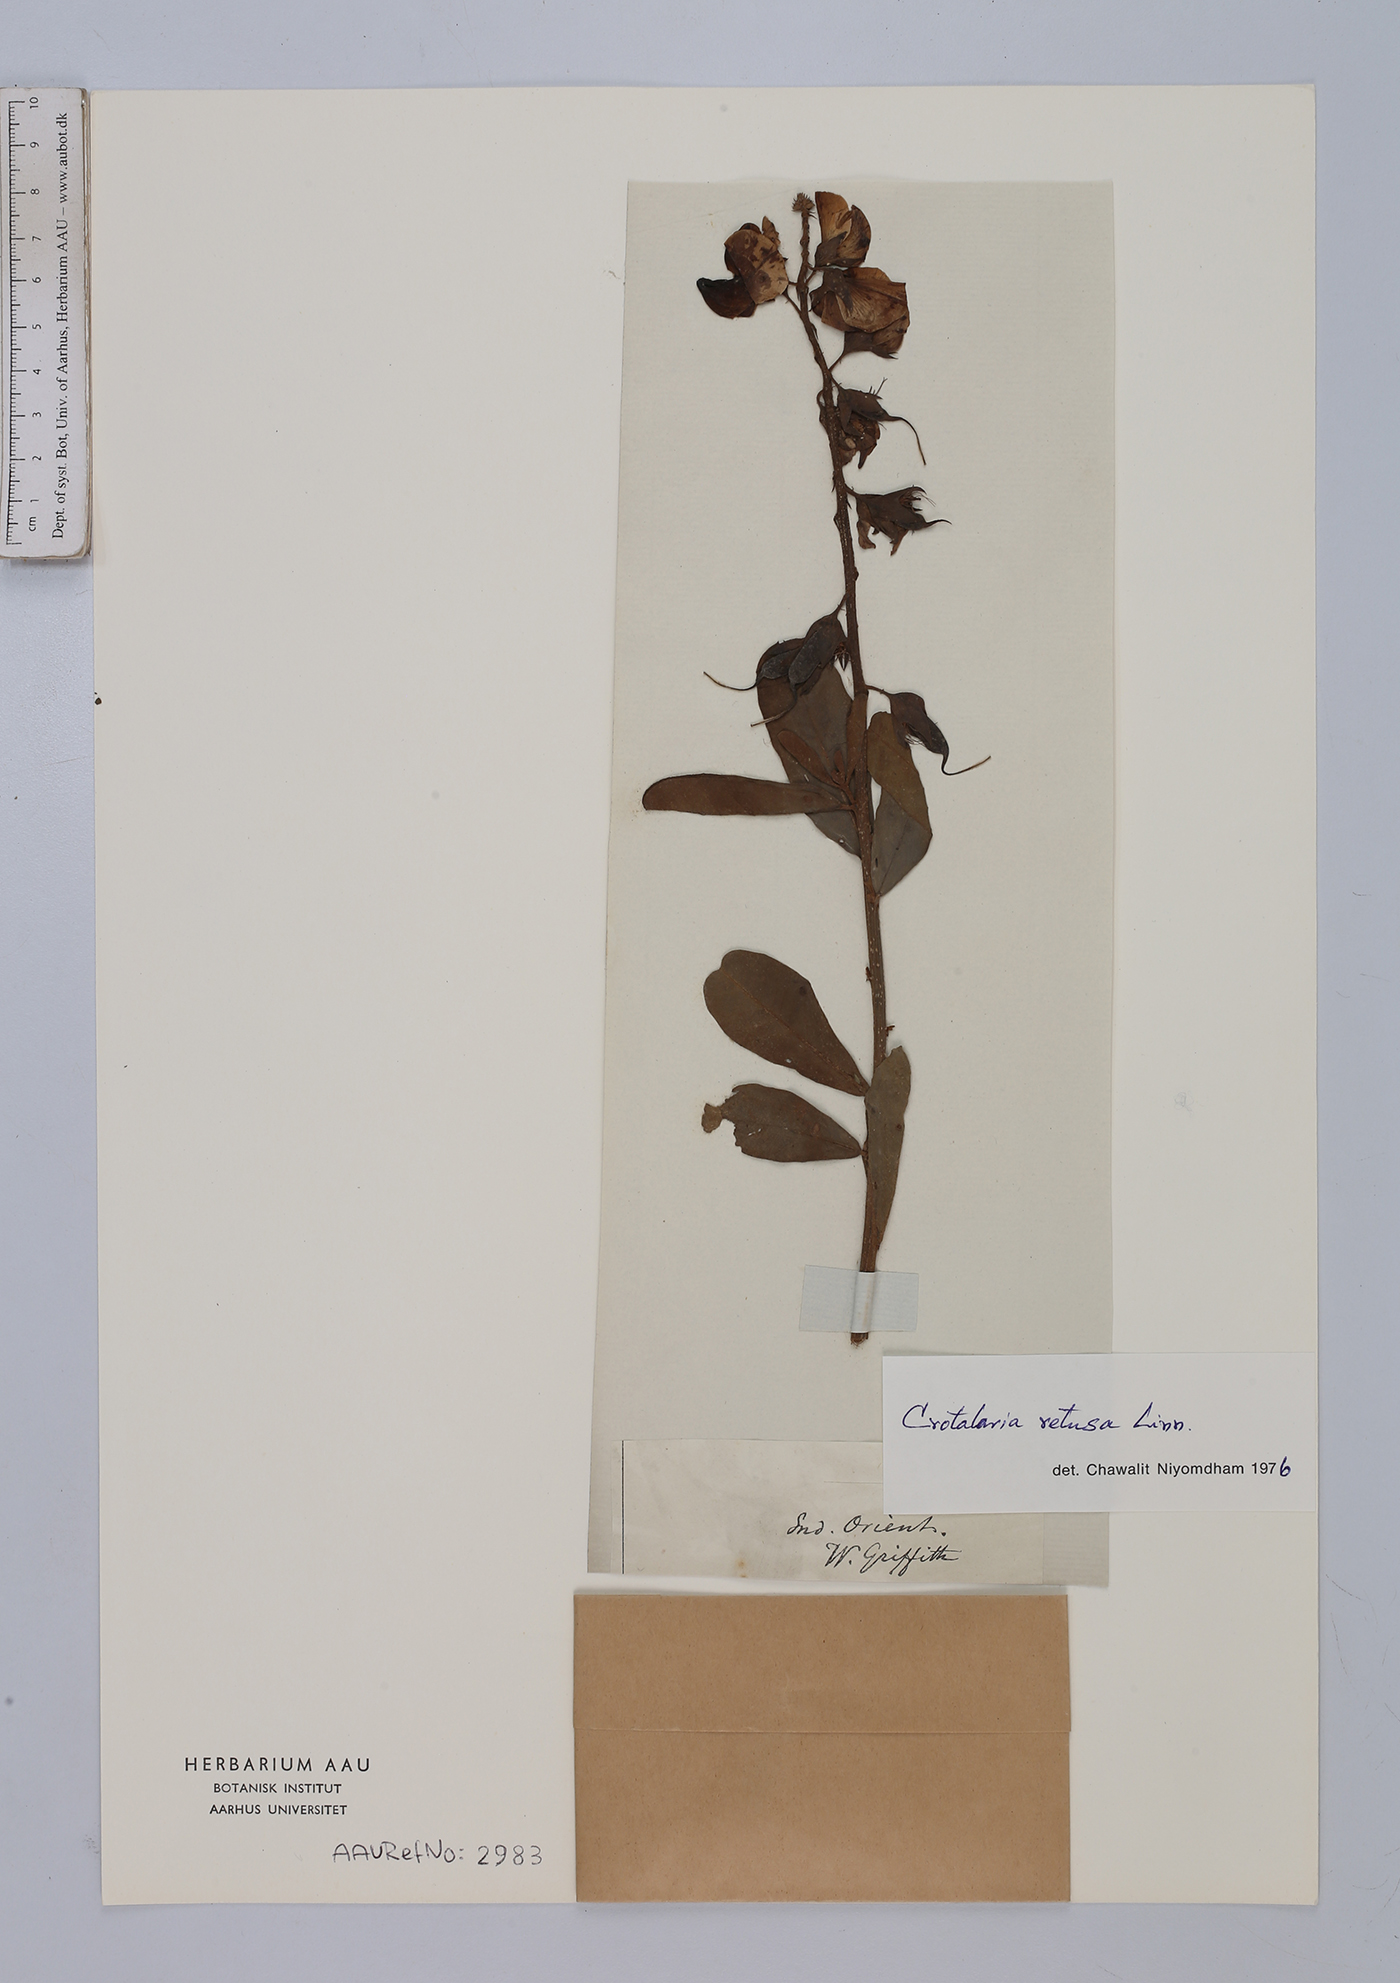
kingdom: Plantae
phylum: Tracheophyta
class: Magnoliopsida
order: Fabales
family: Fabaceae
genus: Crotalaria
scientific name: Crotalaria retusa
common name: Rattleweed
